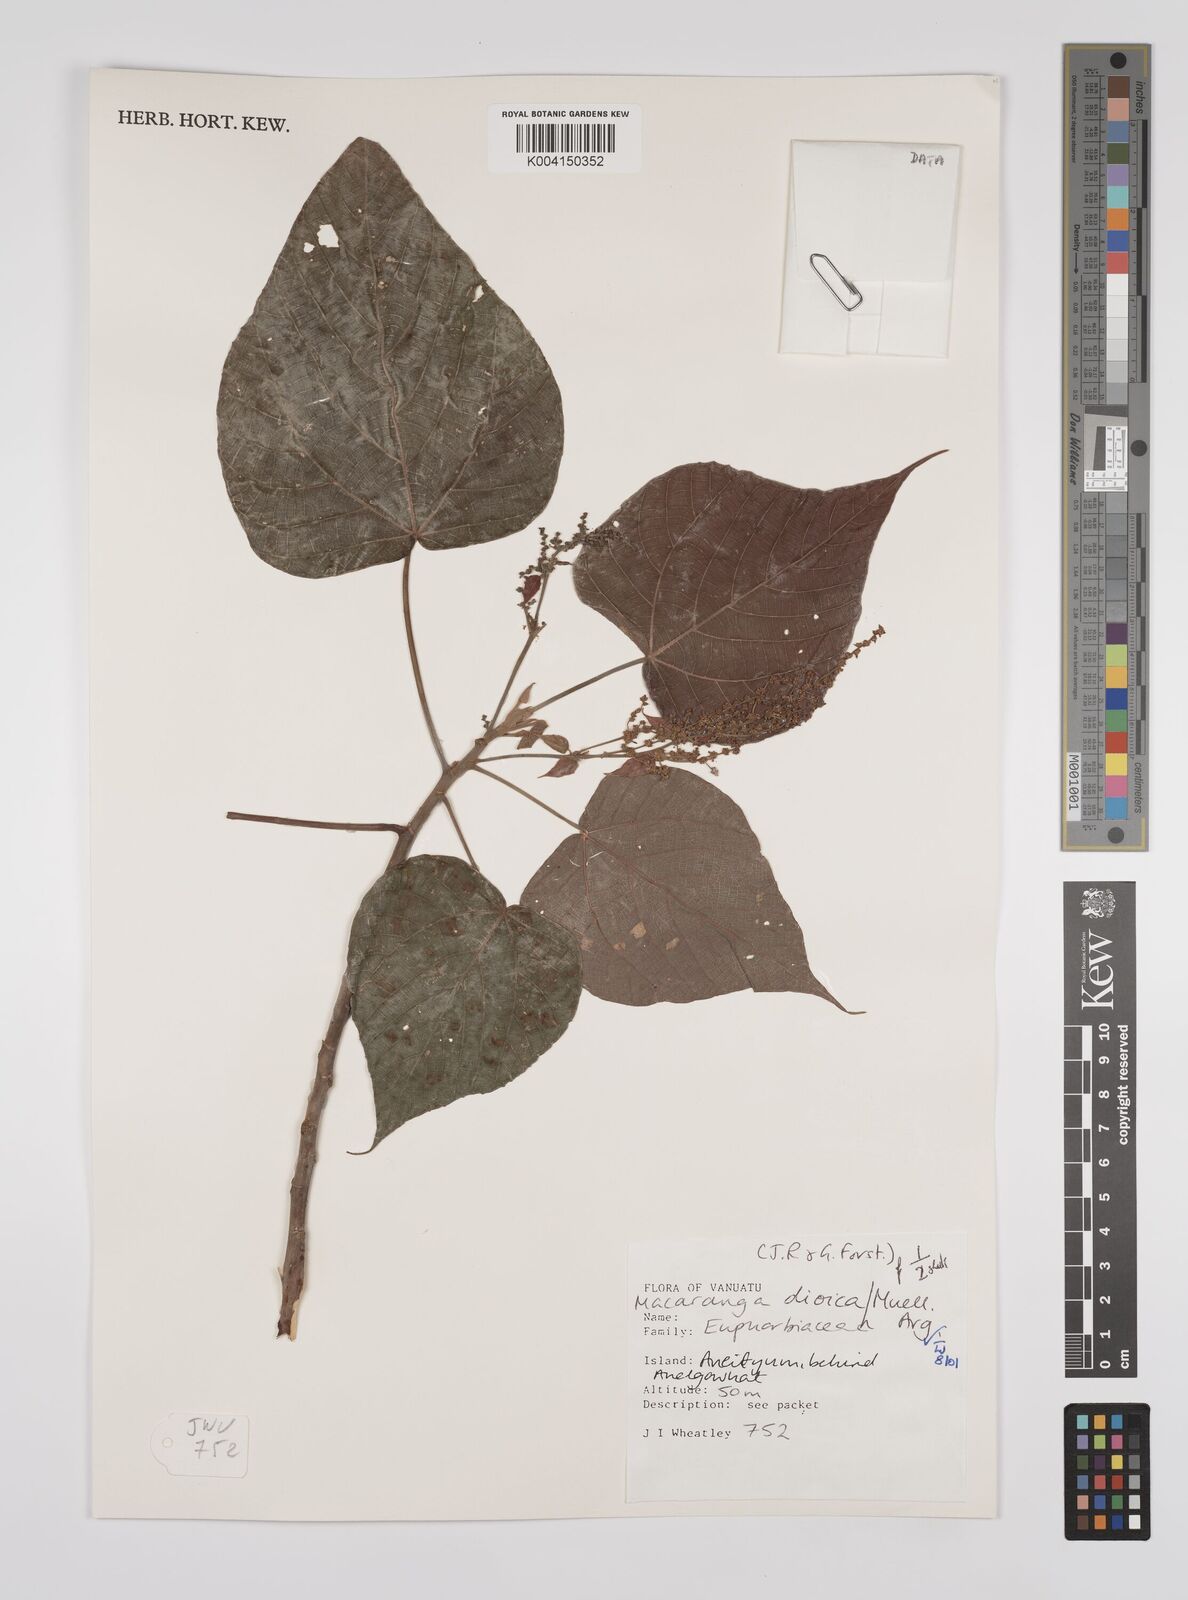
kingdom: Plantae
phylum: Tracheophyta
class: Magnoliopsida
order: Malpighiales
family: Euphorbiaceae
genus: Macaranga
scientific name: Macaranga dioica
